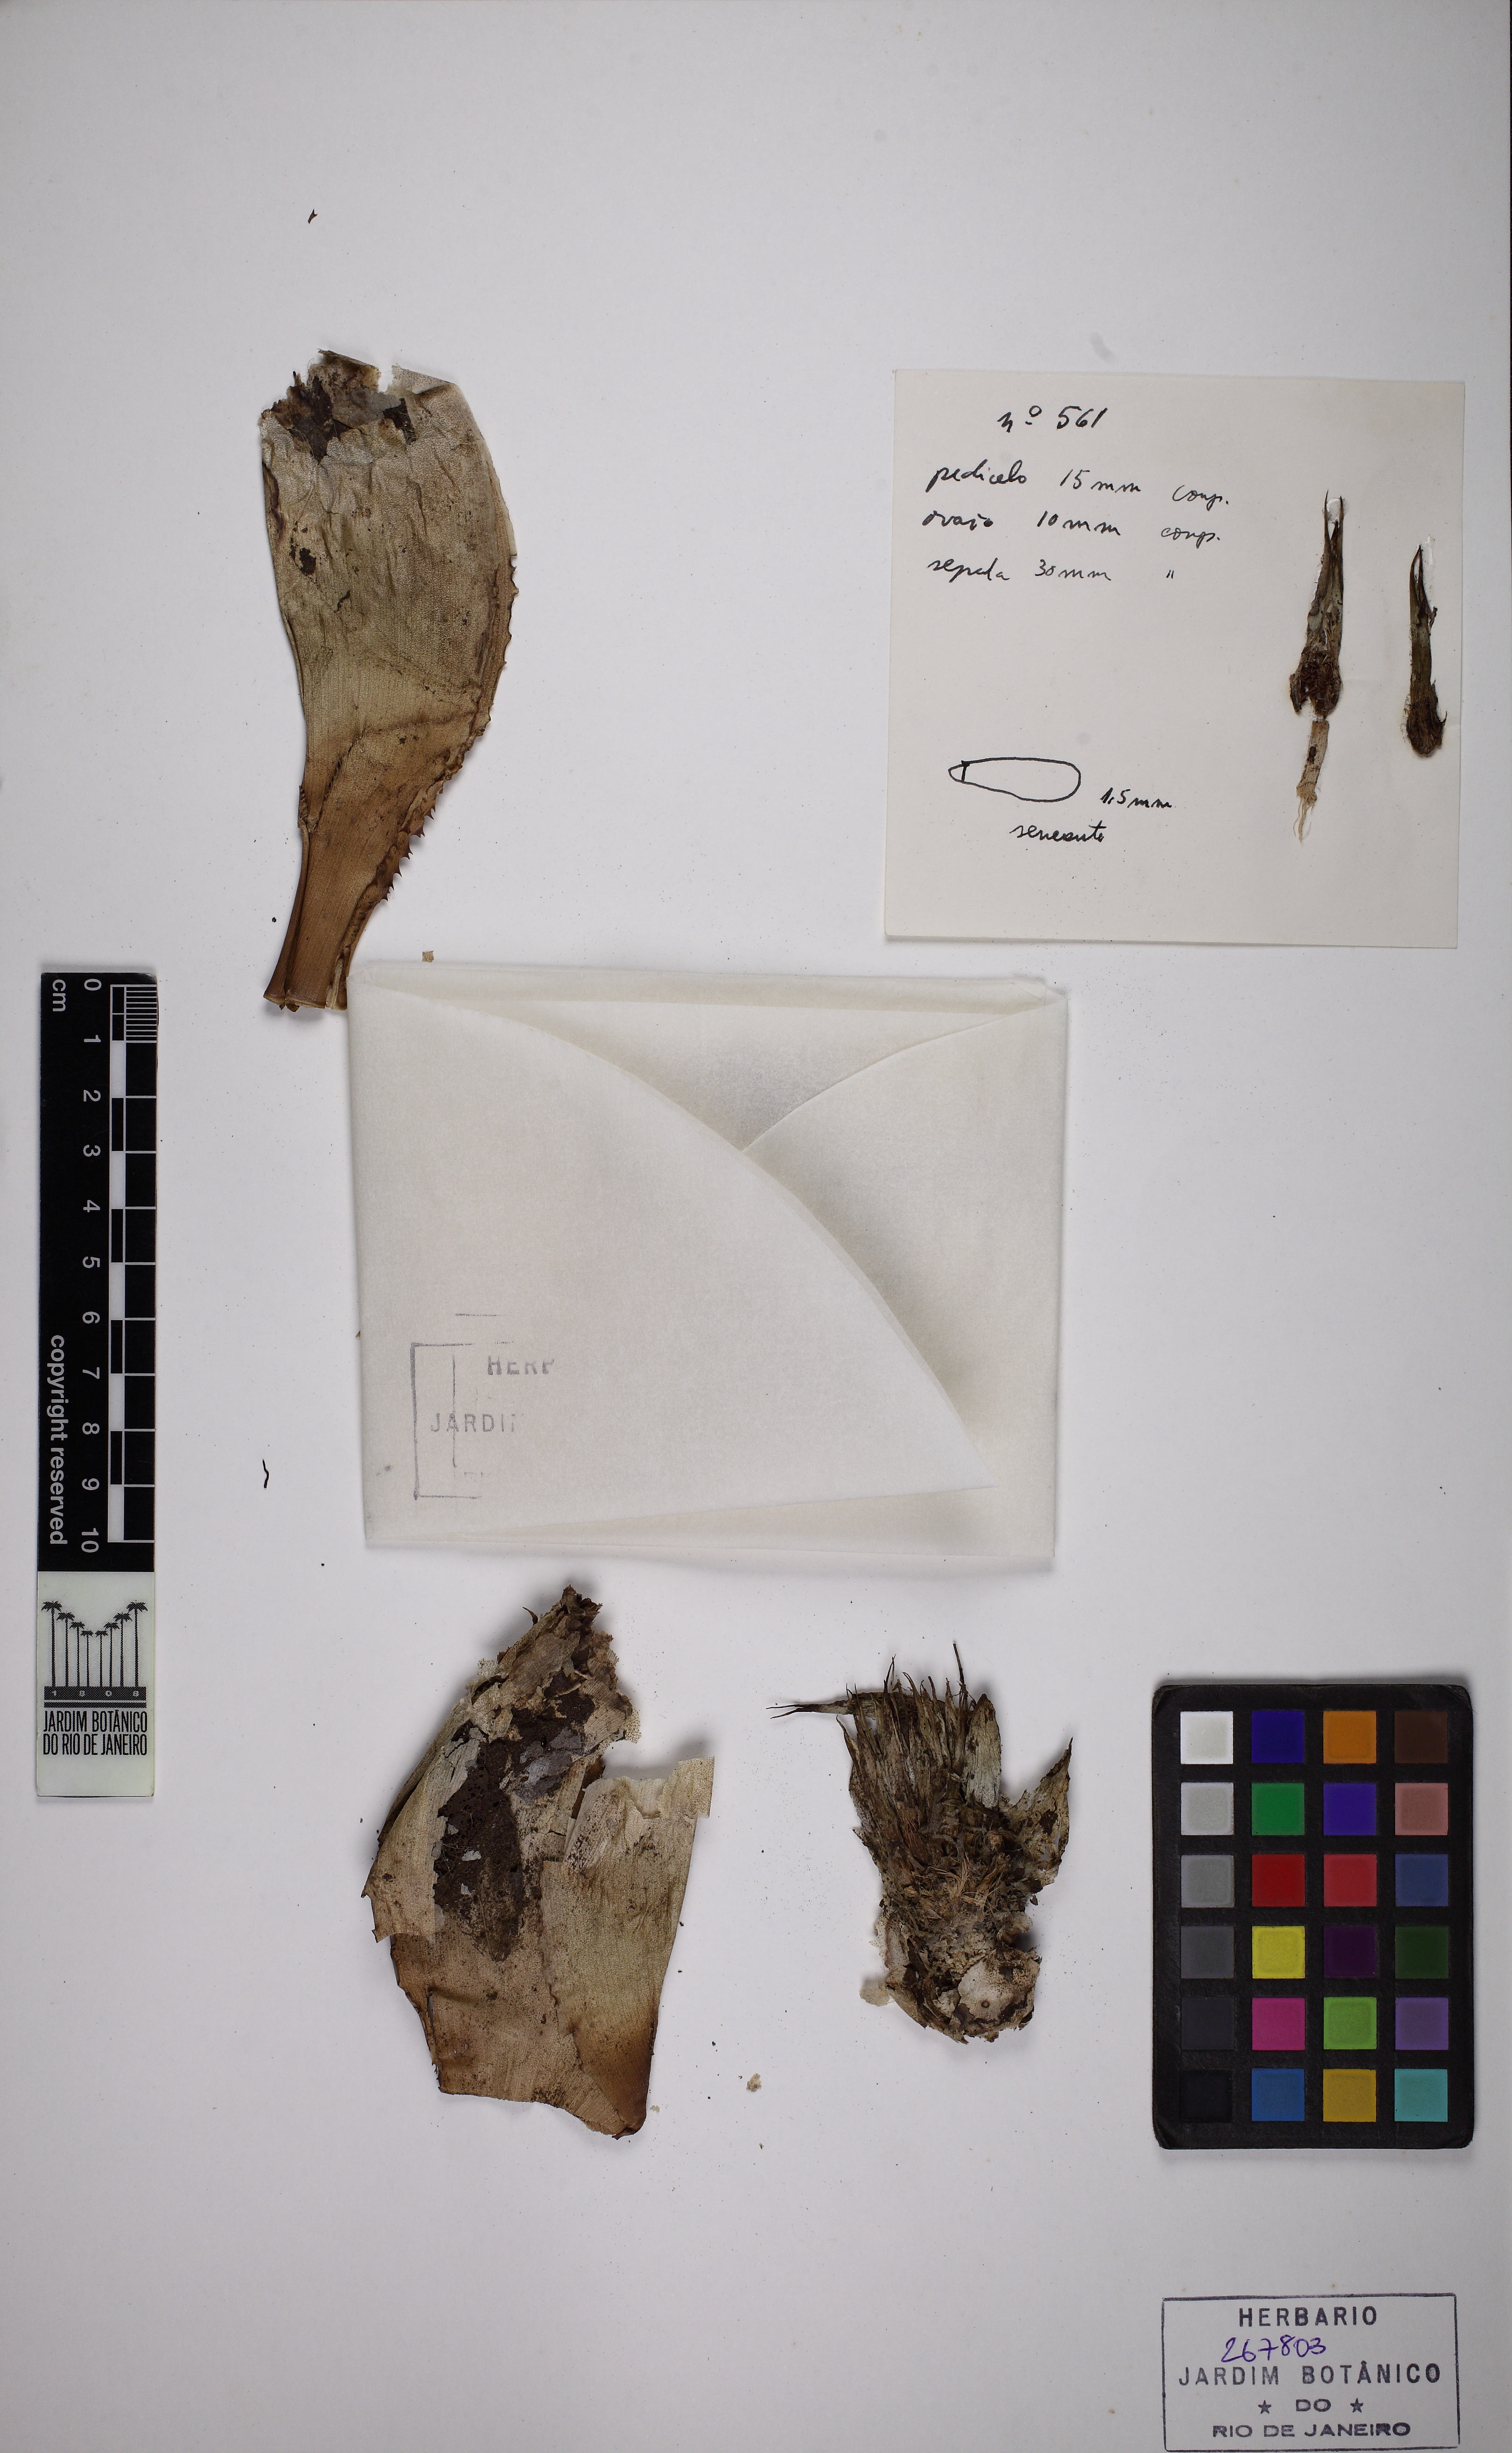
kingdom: Plantae
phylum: Tracheophyta
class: Liliopsida
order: Poales
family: Bromeliaceae
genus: Neoregelia
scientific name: Neoregelia
